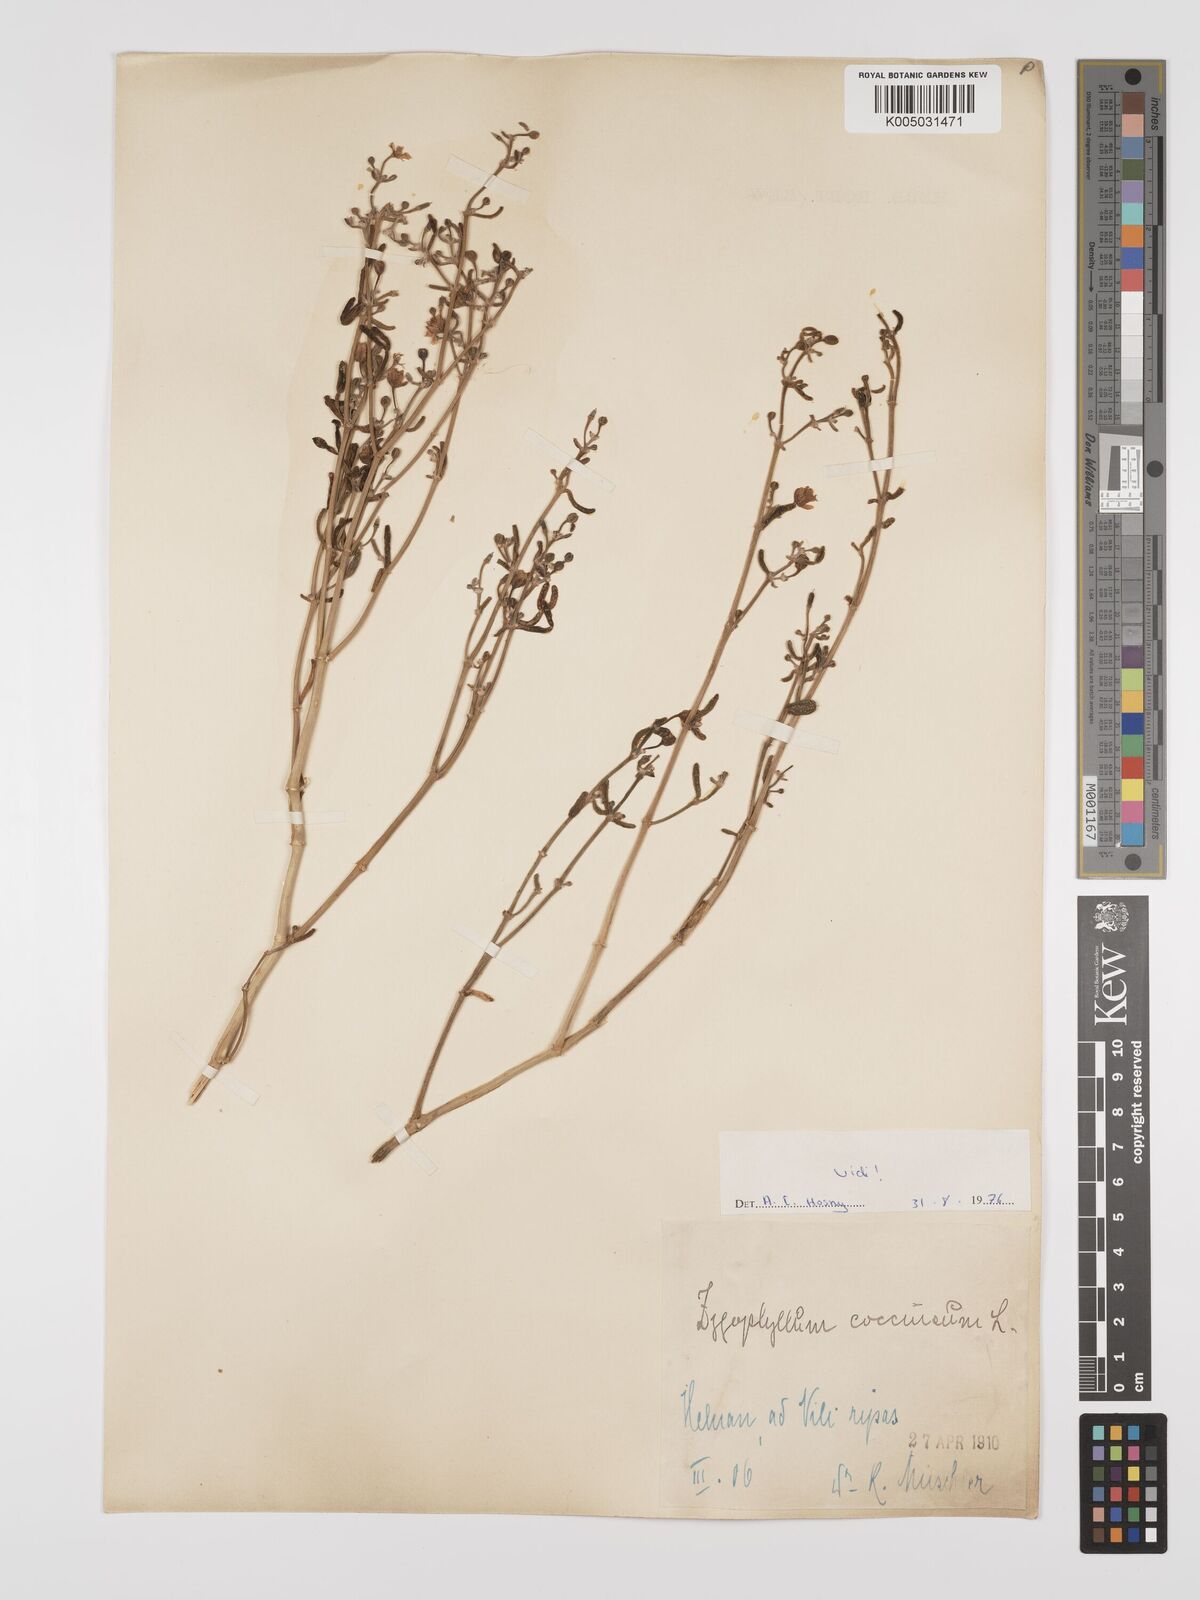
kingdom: Plantae
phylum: Tracheophyta
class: Magnoliopsida
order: Zygophyllales
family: Zygophyllaceae
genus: Tetraena
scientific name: Tetraena coccinea
